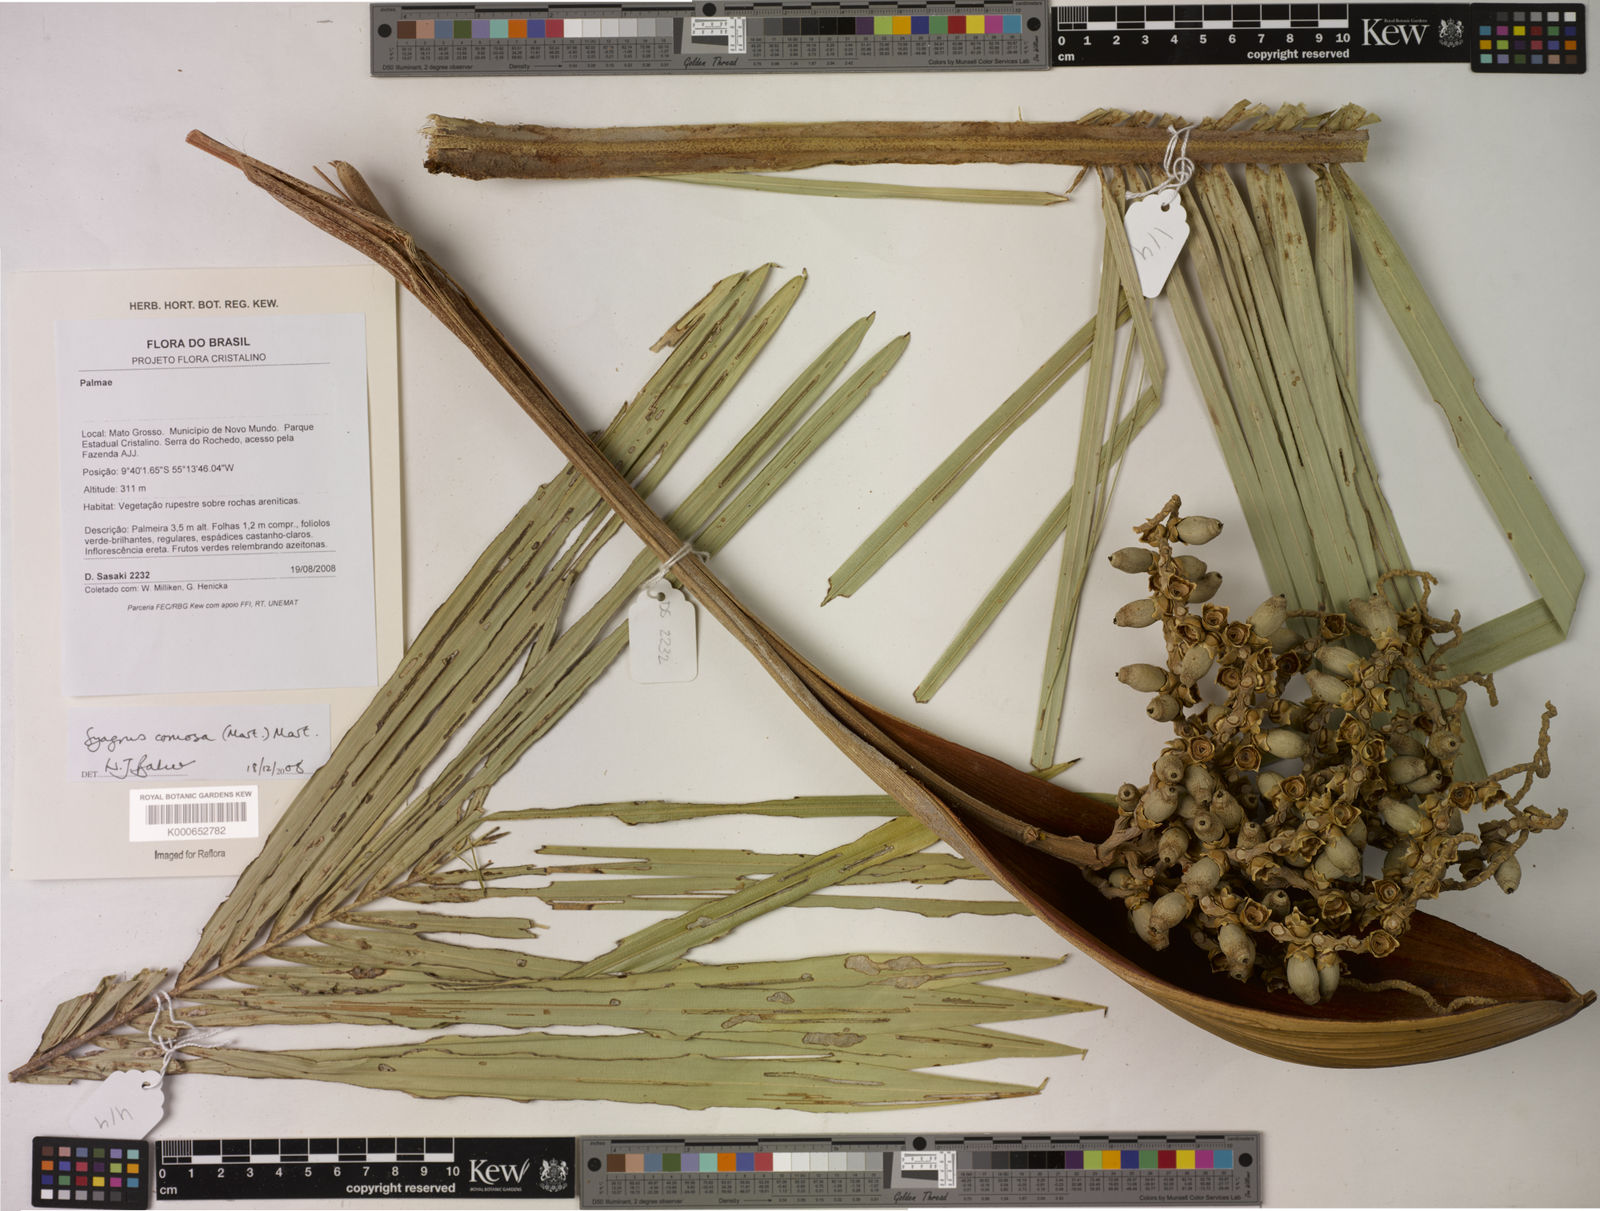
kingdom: Plantae
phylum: Tracheophyta
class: Liliopsida
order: Arecales
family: Arecaceae
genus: Syagrus
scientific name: Syagrus comosa
